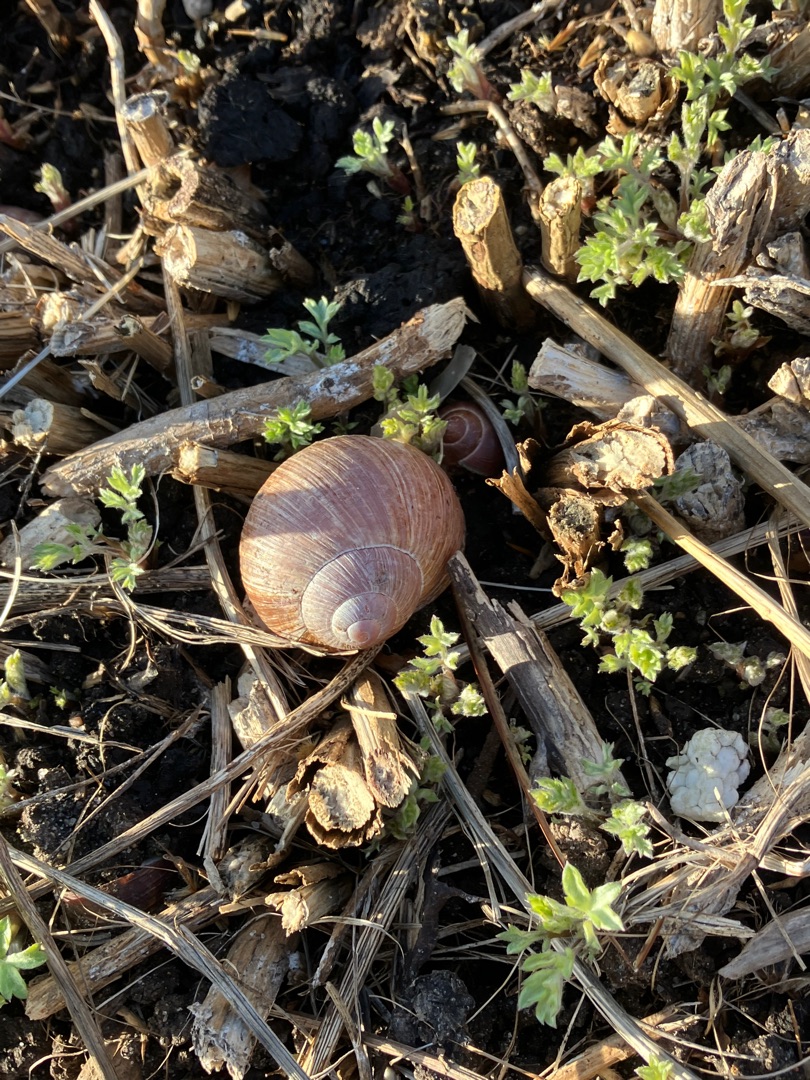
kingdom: Animalia
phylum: Mollusca
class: Gastropoda
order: Stylommatophora
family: Helicidae
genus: Helix
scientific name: Helix pomatia
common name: Vinbjergsnegl
